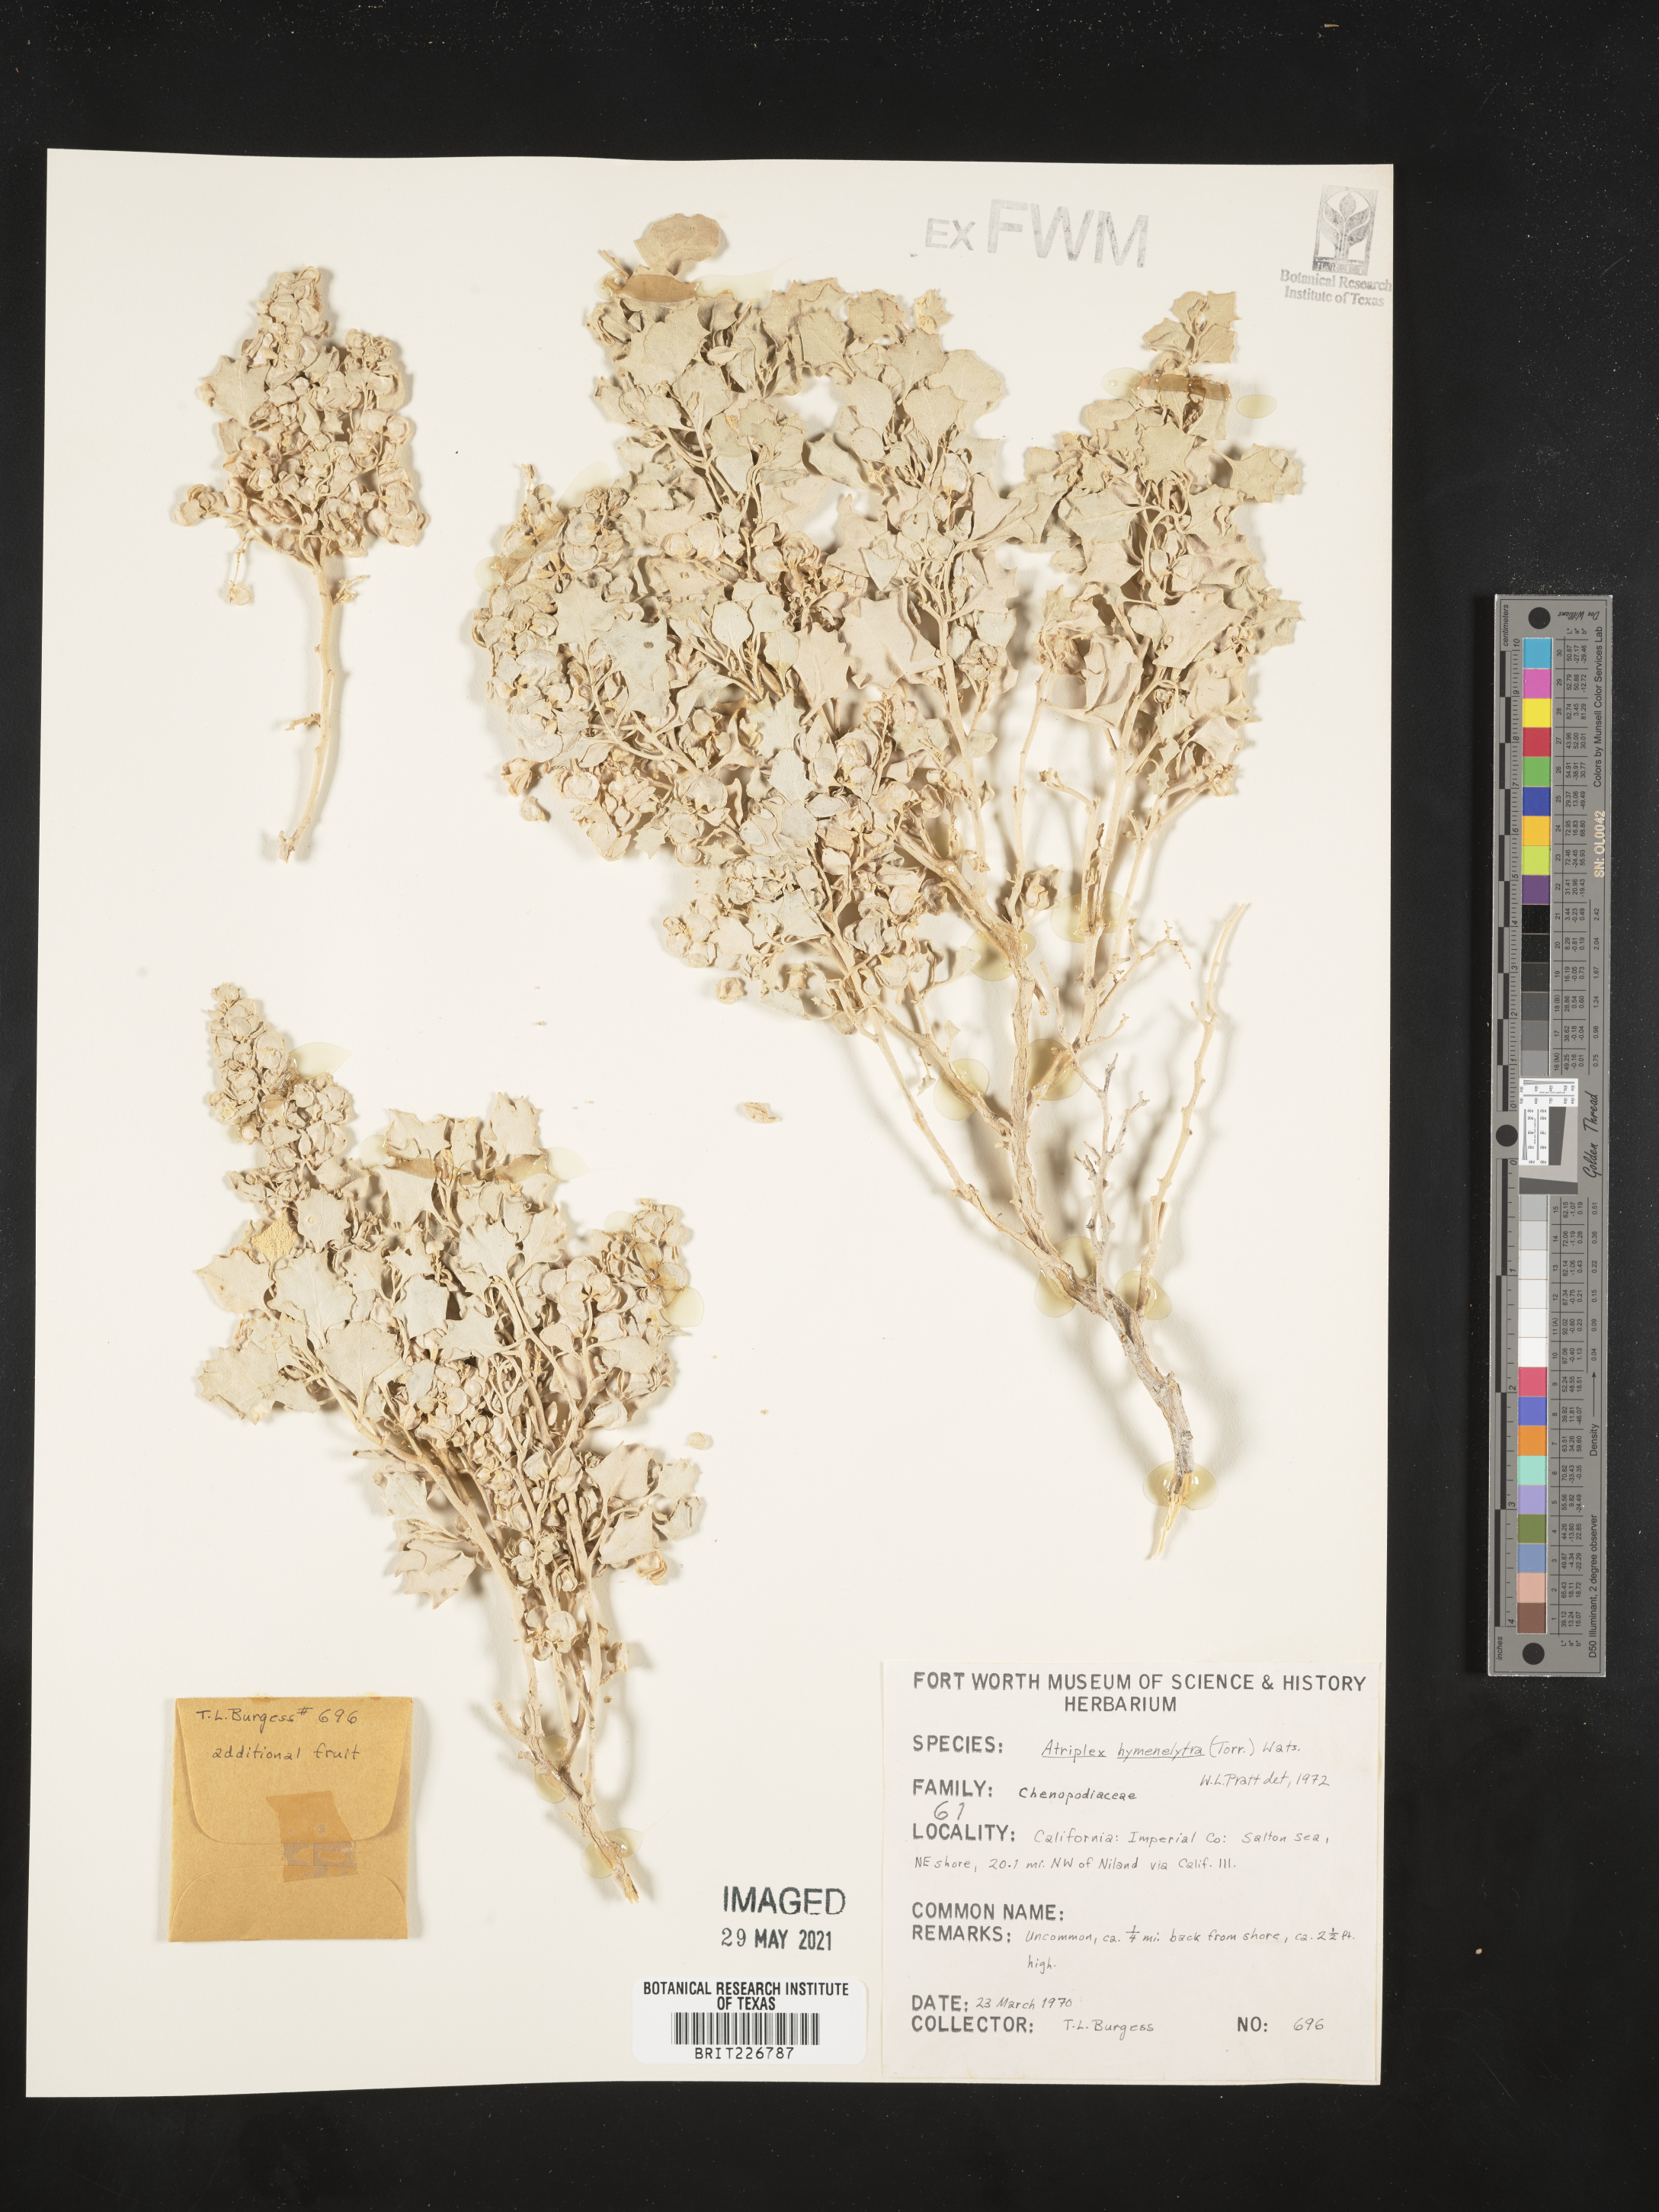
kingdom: Plantae
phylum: Tracheophyta
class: Magnoliopsida
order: Caryophyllales
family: Amaranthaceae
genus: Atriplex
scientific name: Atriplex hymenelytra
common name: Desert-holly
